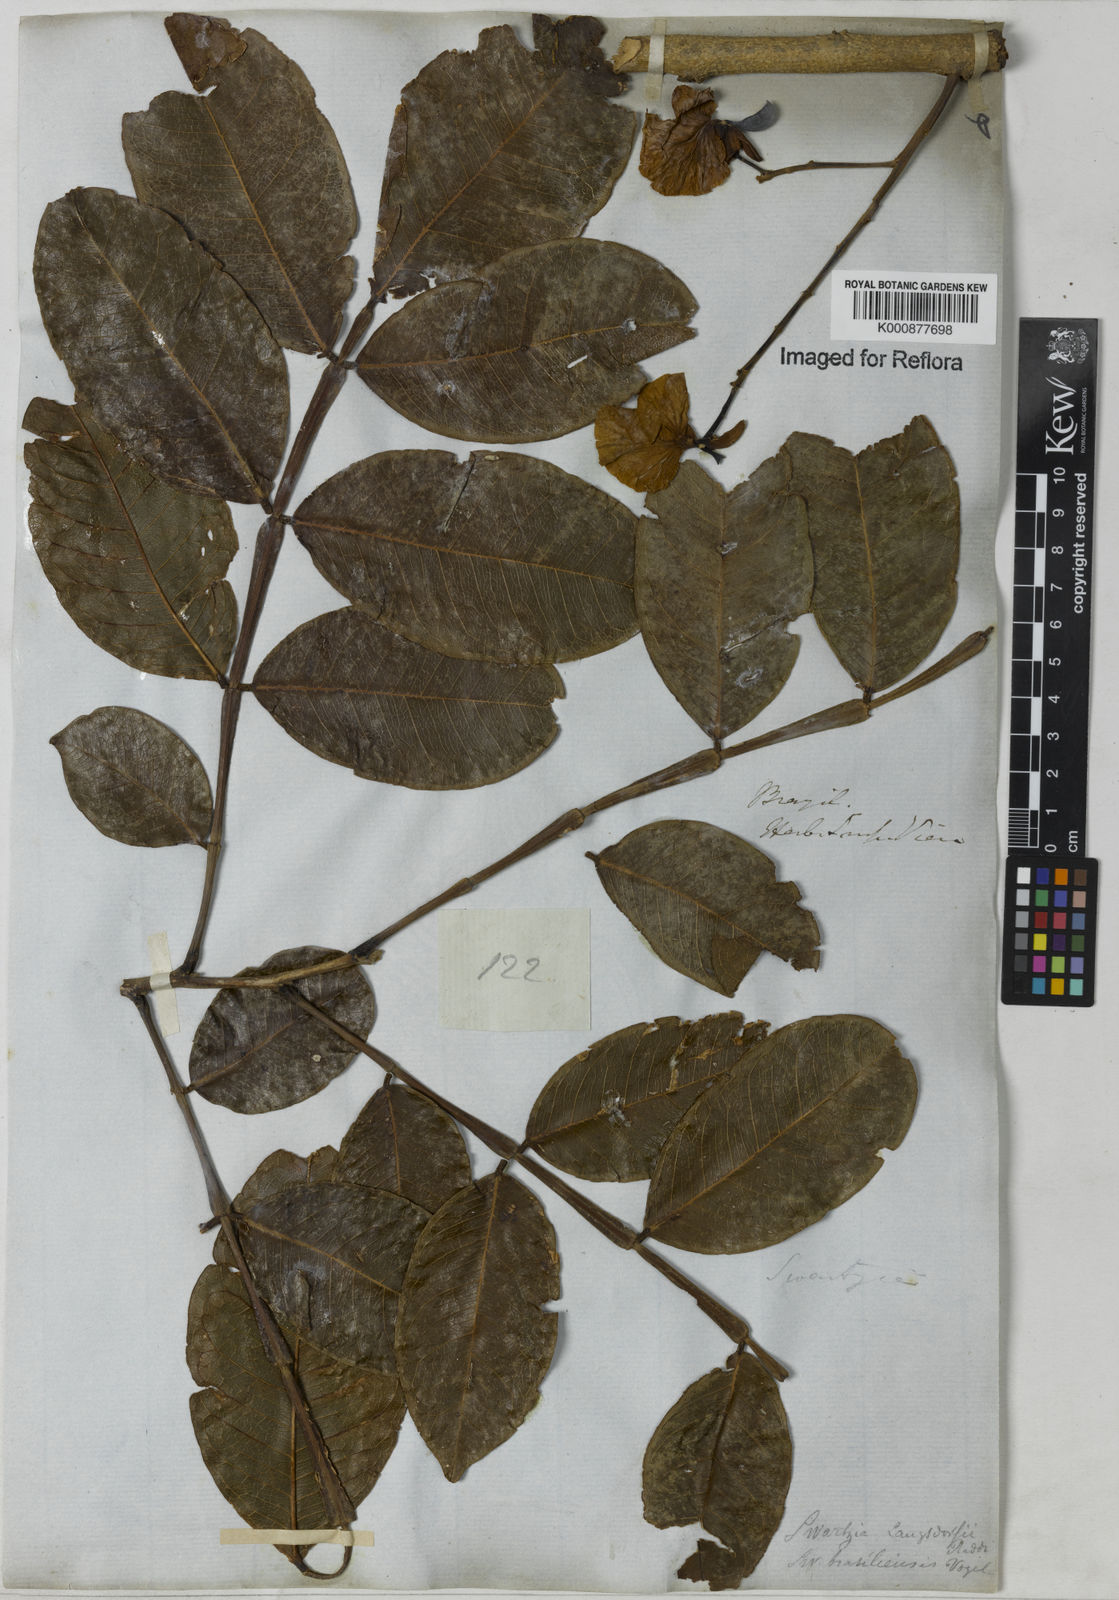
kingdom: Plantae
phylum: Tracheophyta
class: Magnoliopsida
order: Fabales
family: Fabaceae
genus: Swartzia
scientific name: Swartzia langsdorffii
